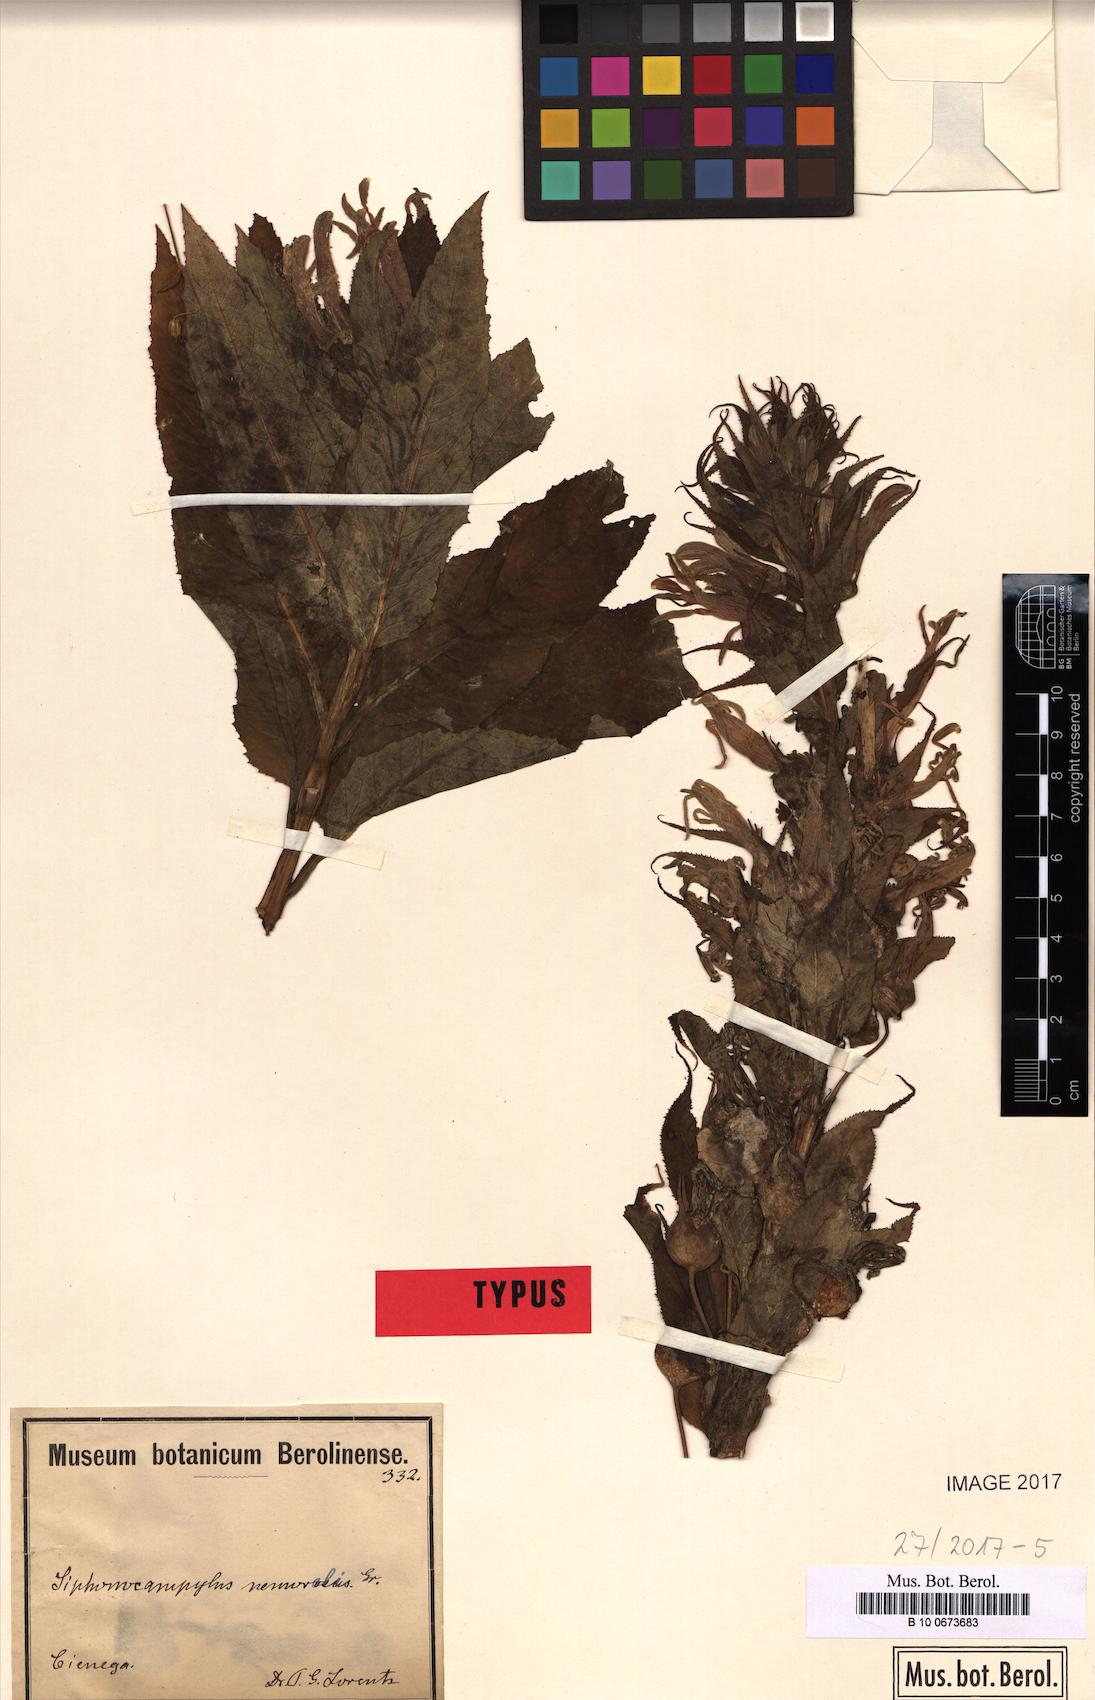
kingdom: Plantae
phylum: Tracheophyta
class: Magnoliopsida
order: Asterales
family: Campanulaceae
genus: Siphocampylus
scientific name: Siphocampylus nemoralis
